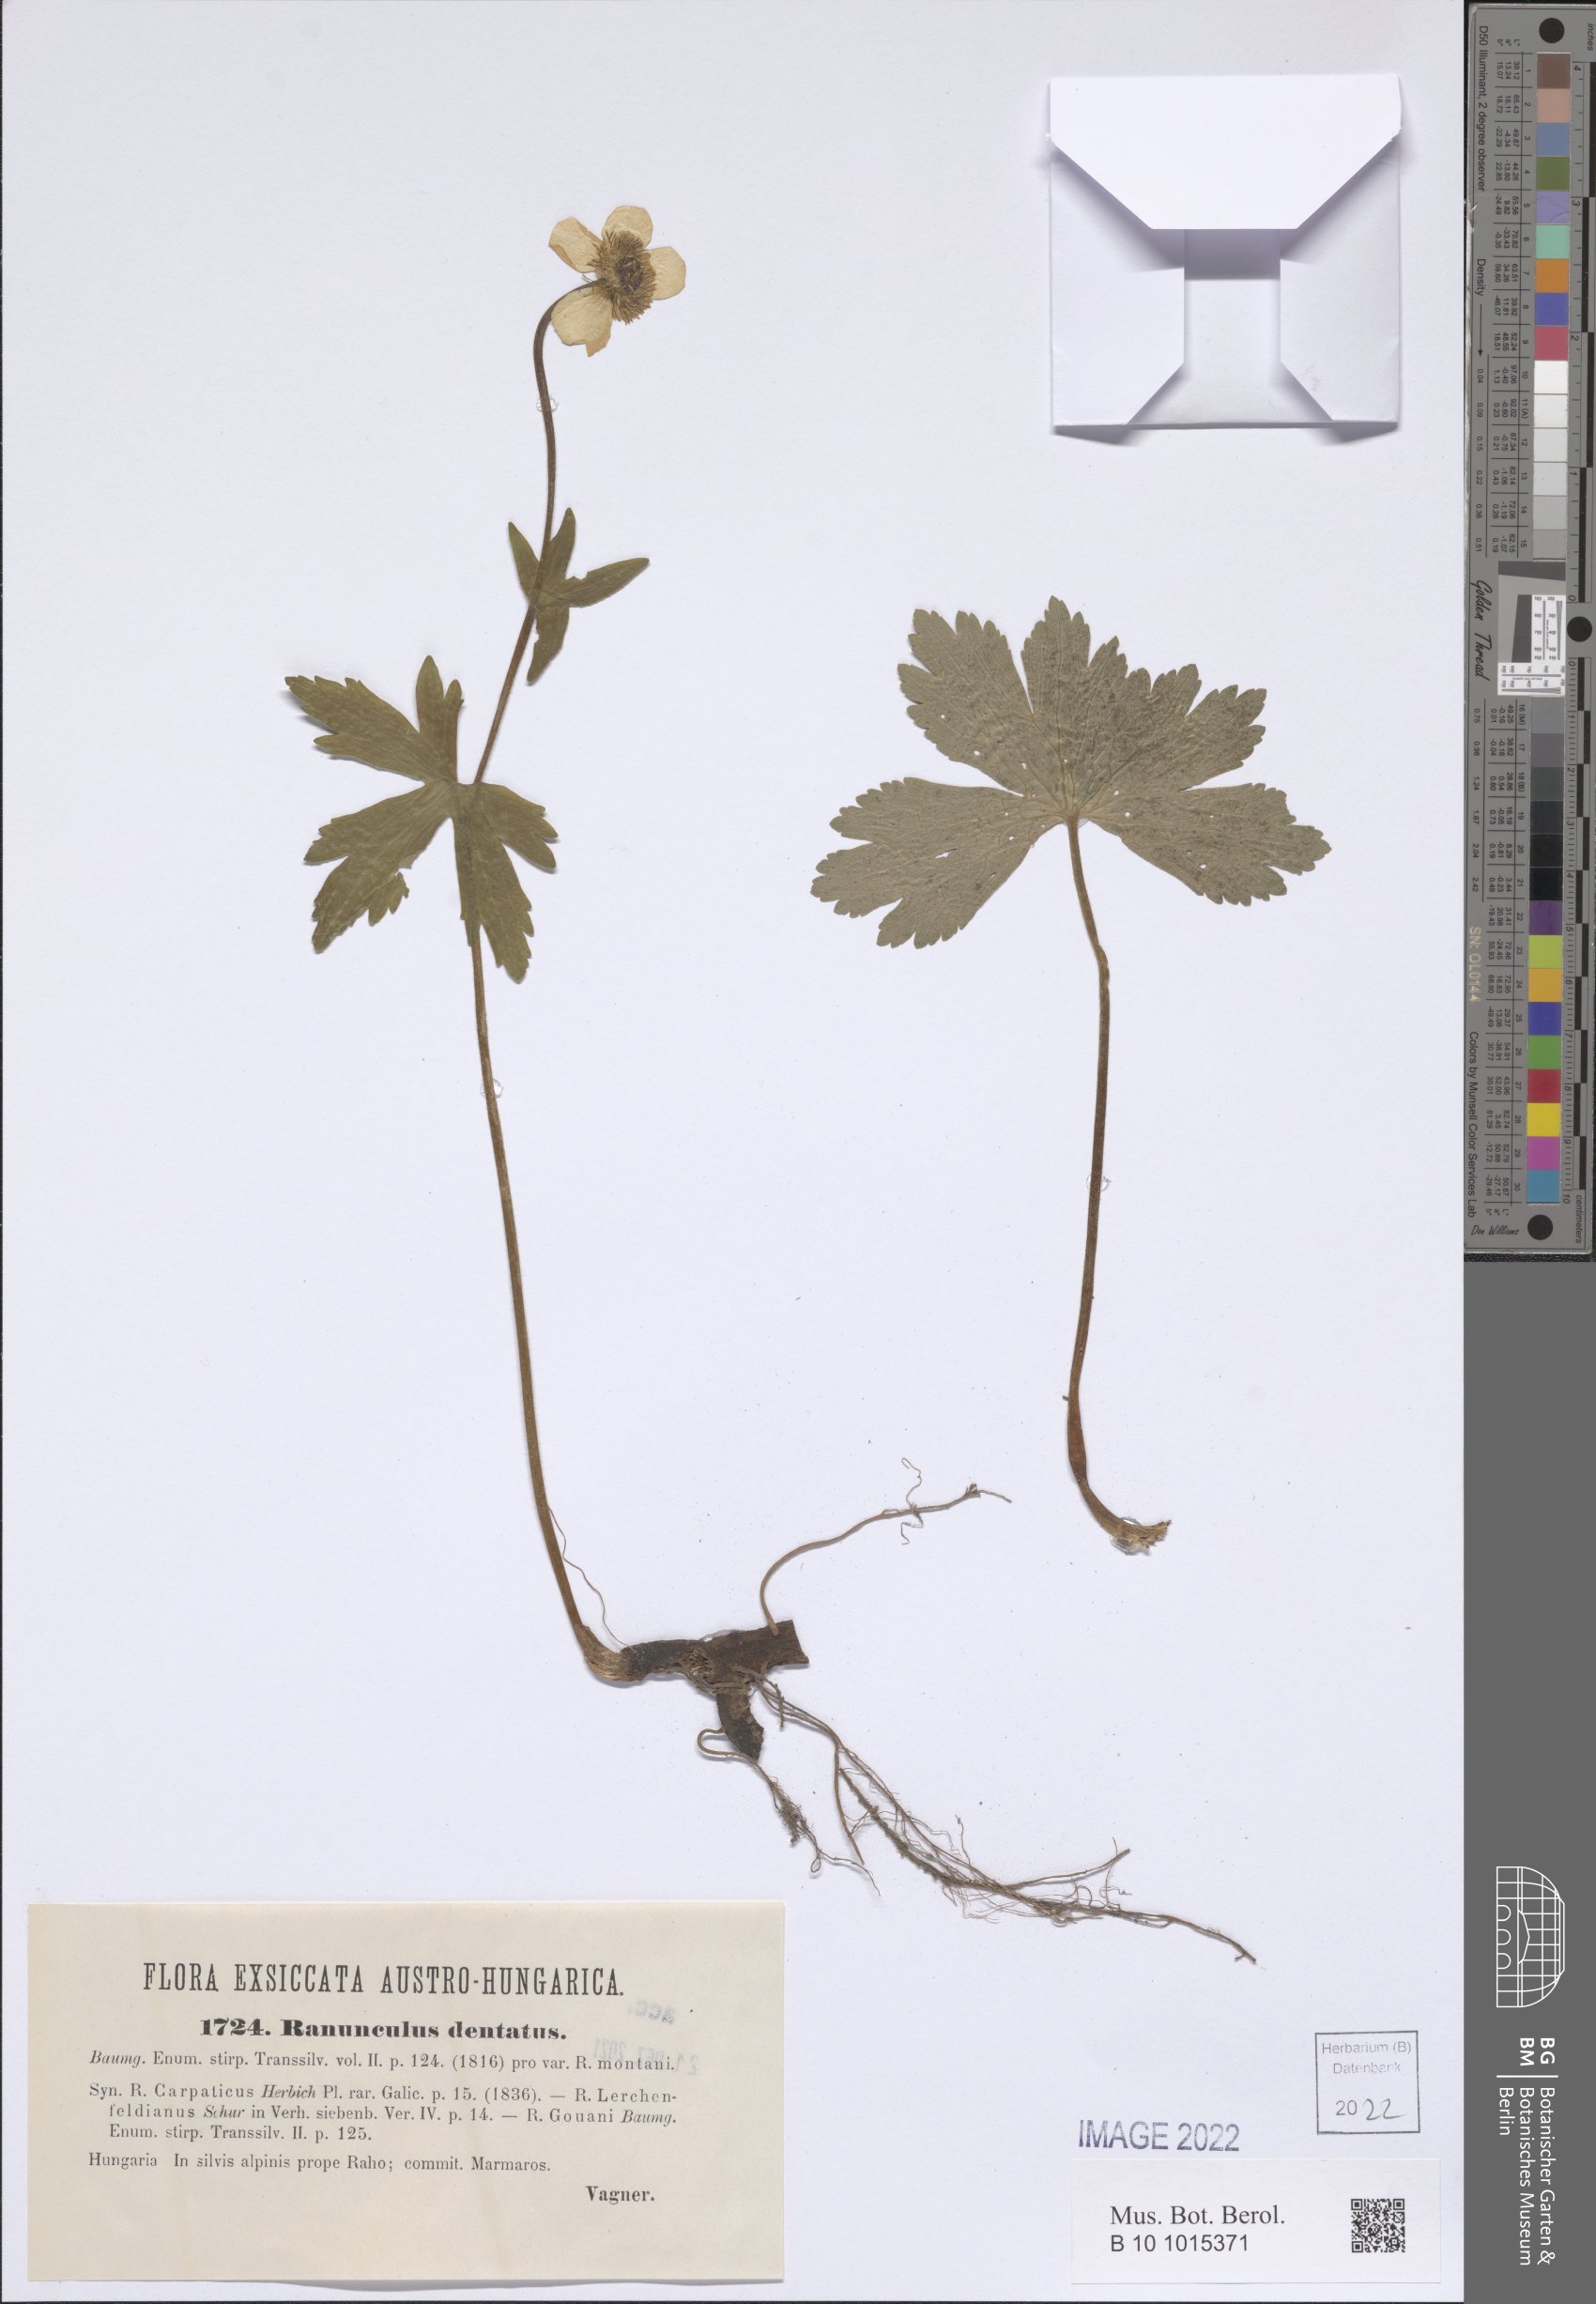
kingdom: Plantae
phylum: Tracheophyta
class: Magnoliopsida
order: Ranunculales
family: Ranunculaceae
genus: Ranunculus
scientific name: Ranunculus carpaticus
